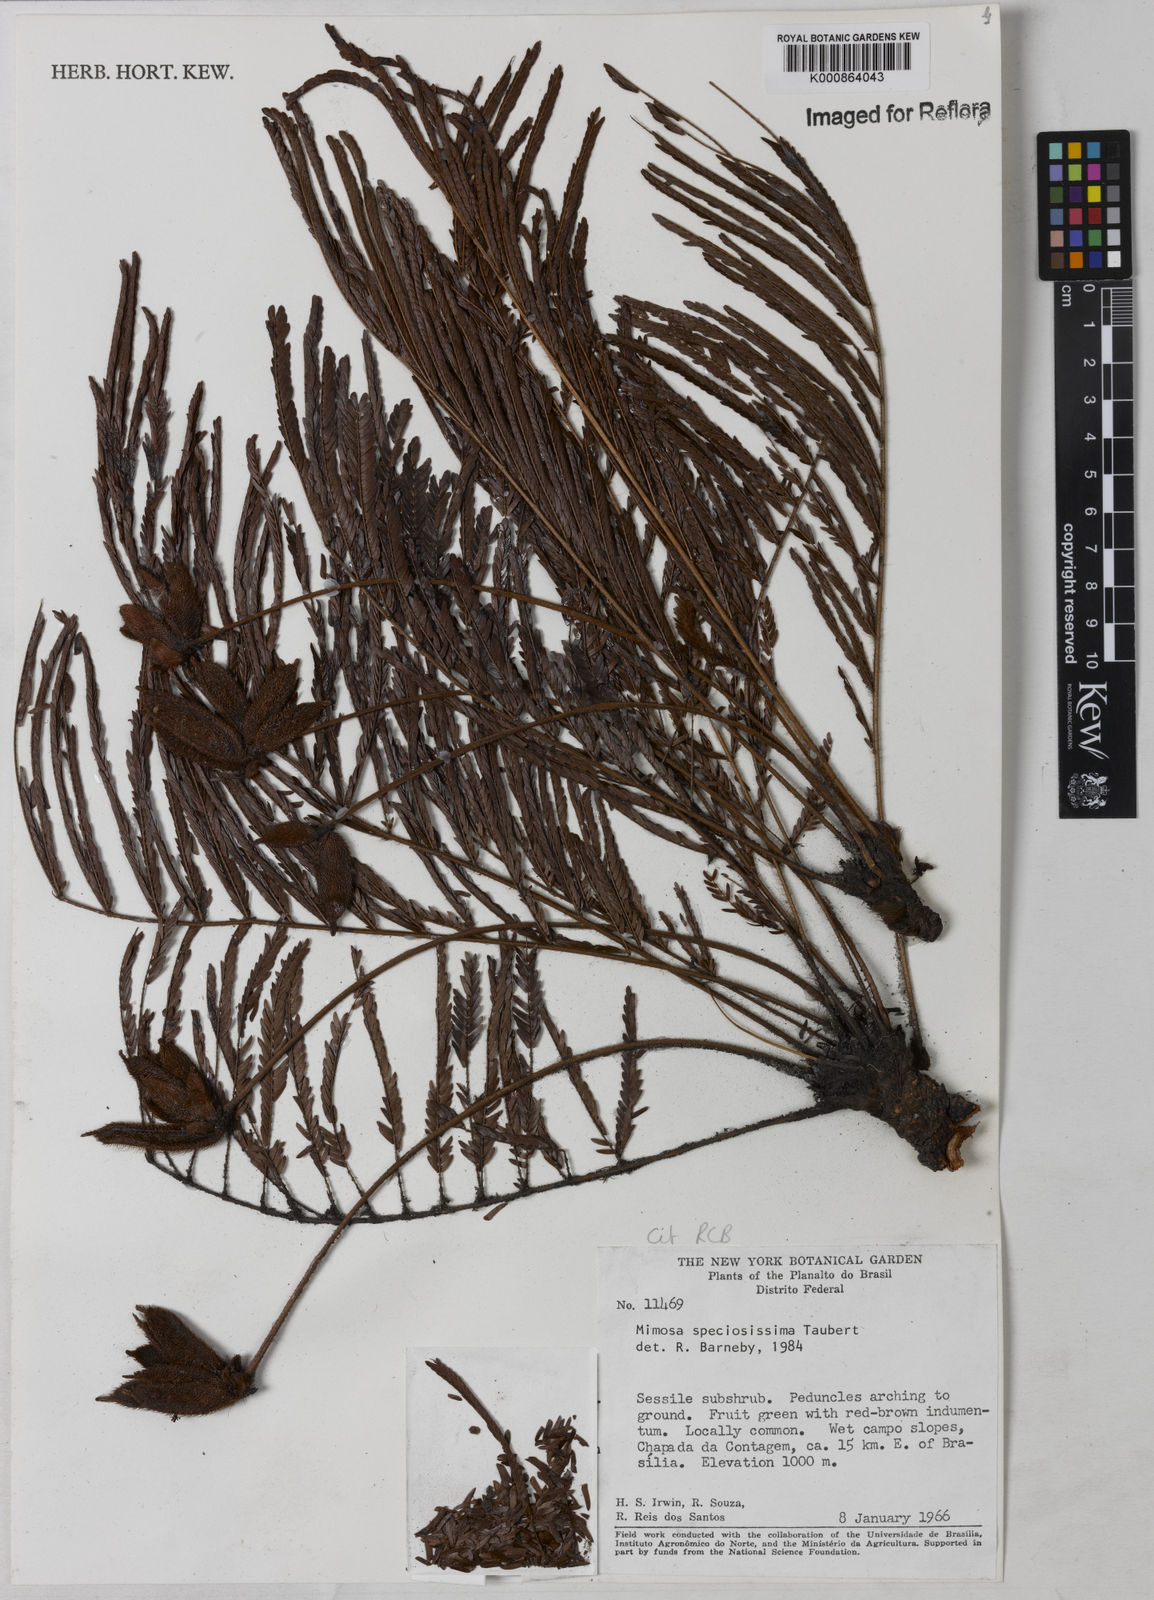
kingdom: Plantae
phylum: Tracheophyta
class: Magnoliopsida
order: Fabales
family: Fabaceae
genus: Mimosa
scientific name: Mimosa speciosissima
